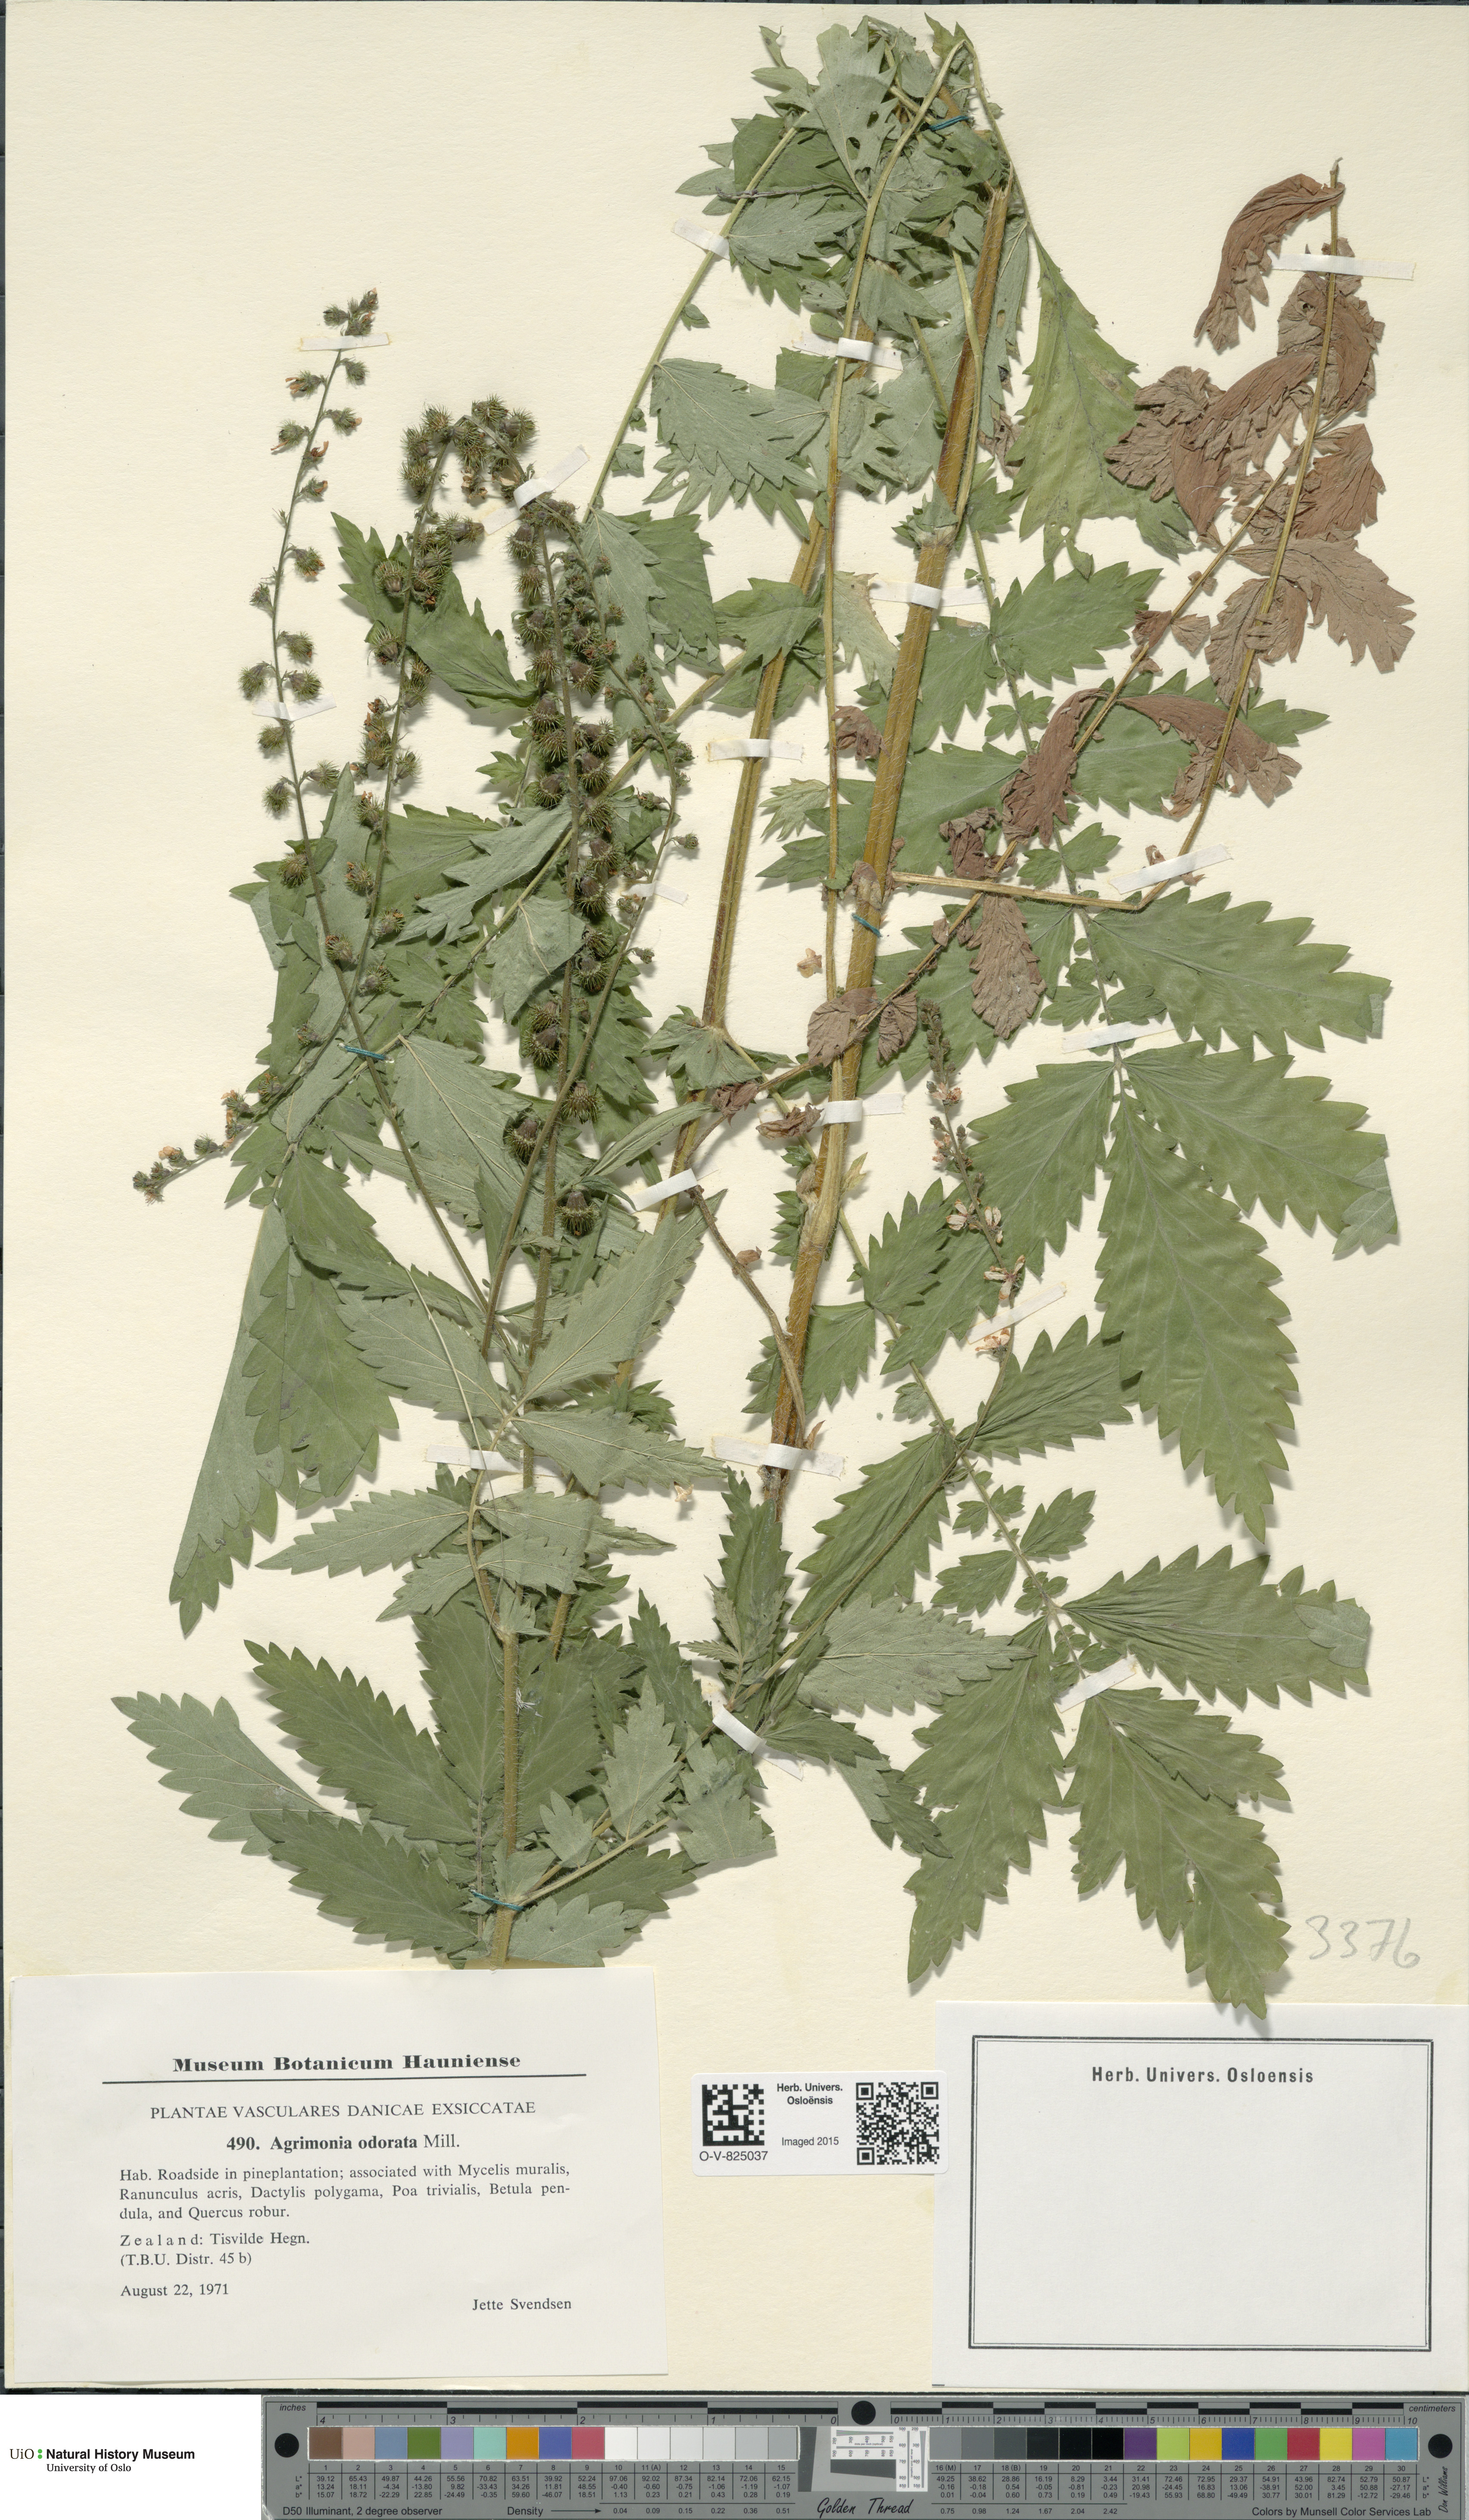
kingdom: Plantae
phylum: Tracheophyta
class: Magnoliopsida
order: Rosales
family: Rosaceae
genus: Agrimonia
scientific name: Agrimonia procera
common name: Fragrant agrimony
